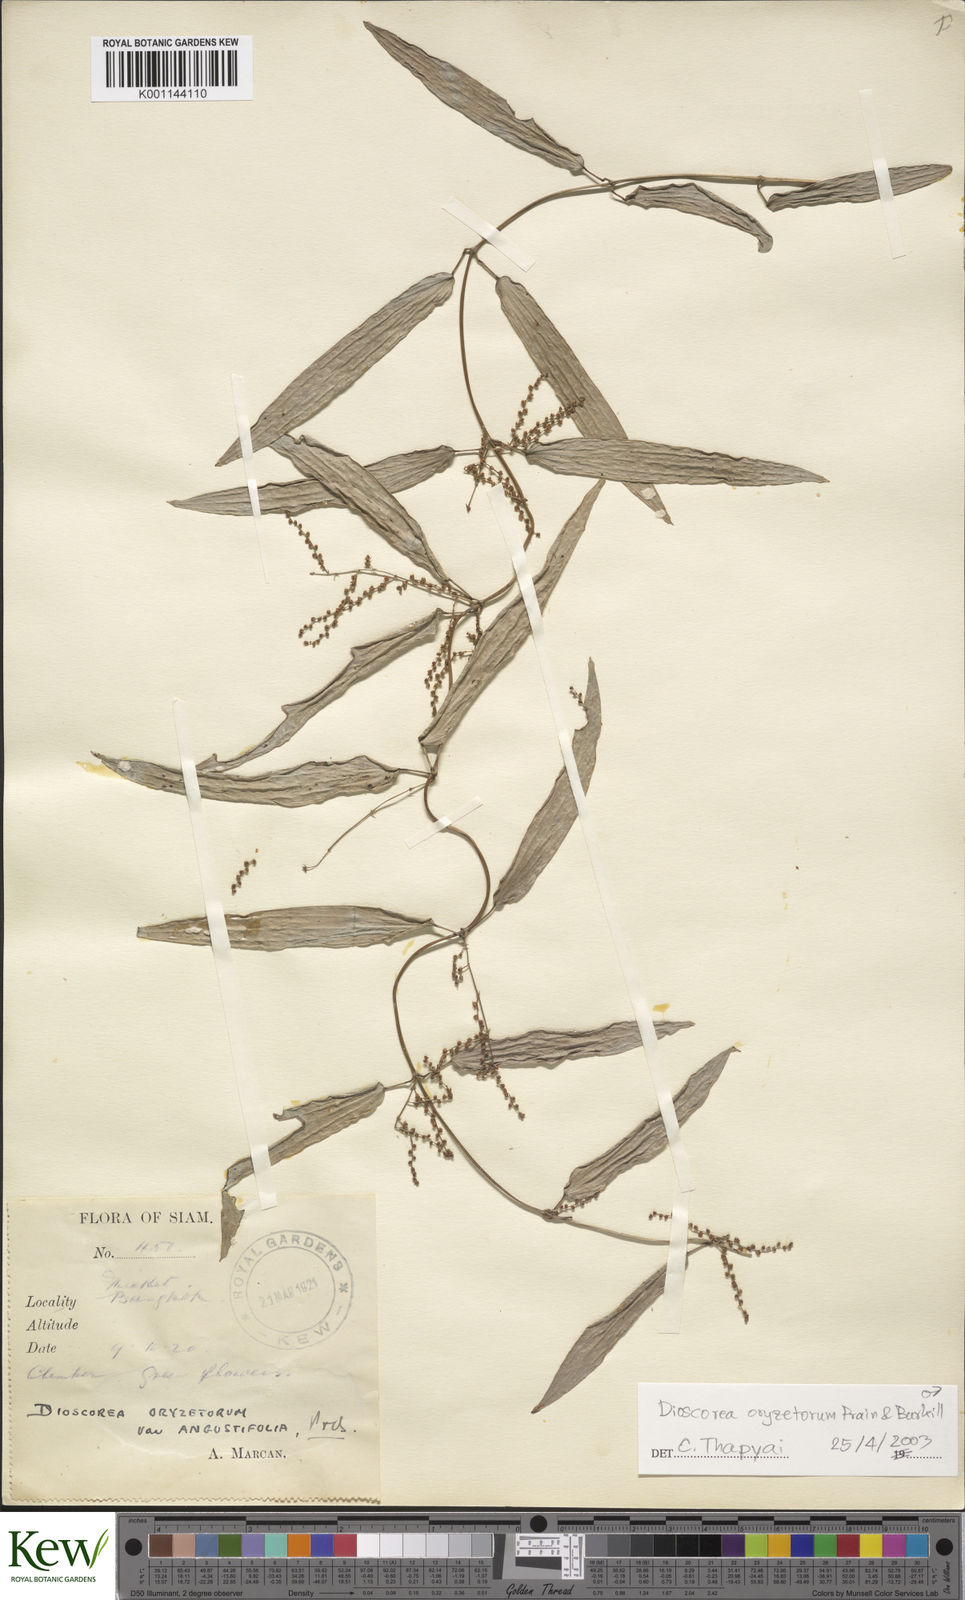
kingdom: Plantae
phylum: Tracheophyta
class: Liliopsida
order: Dioscoreales
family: Dioscoreaceae
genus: Dioscorea
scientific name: Dioscorea
